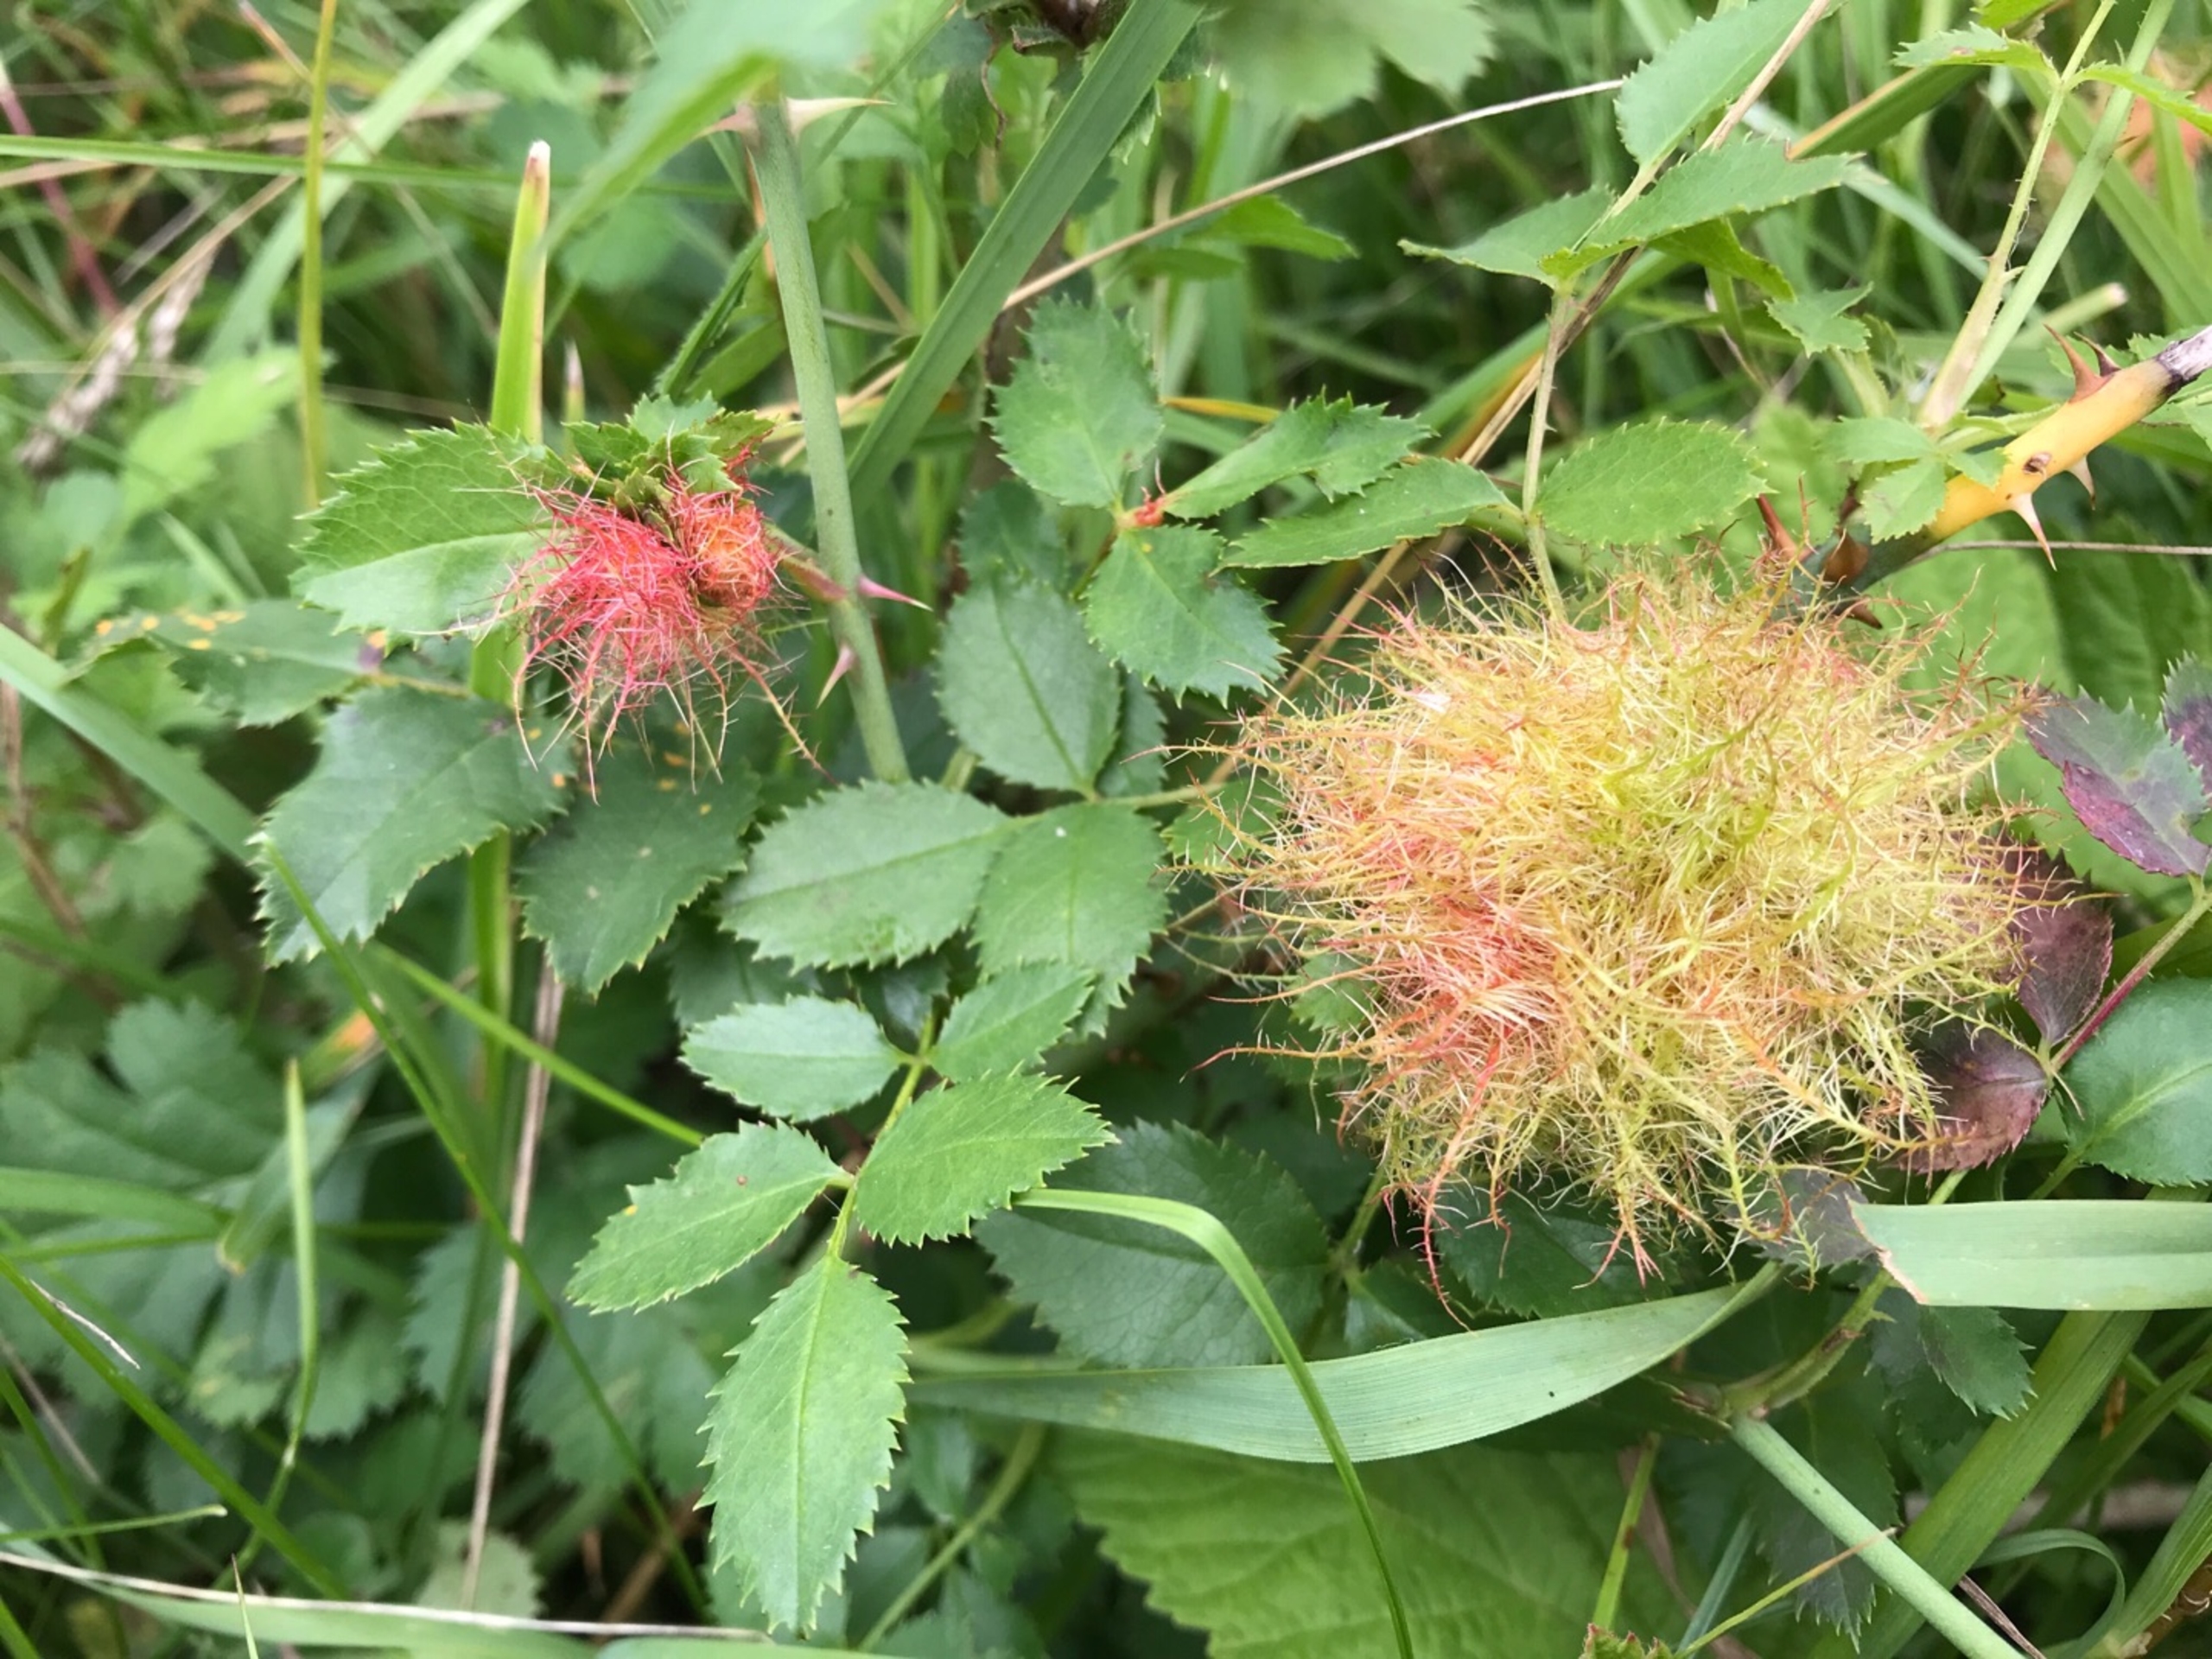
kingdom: Animalia
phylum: Arthropoda
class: Insecta
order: Hymenoptera
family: Cynipidae
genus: Diplolepis
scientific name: Diplolepis rosae
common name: Bedeguargalhveps
